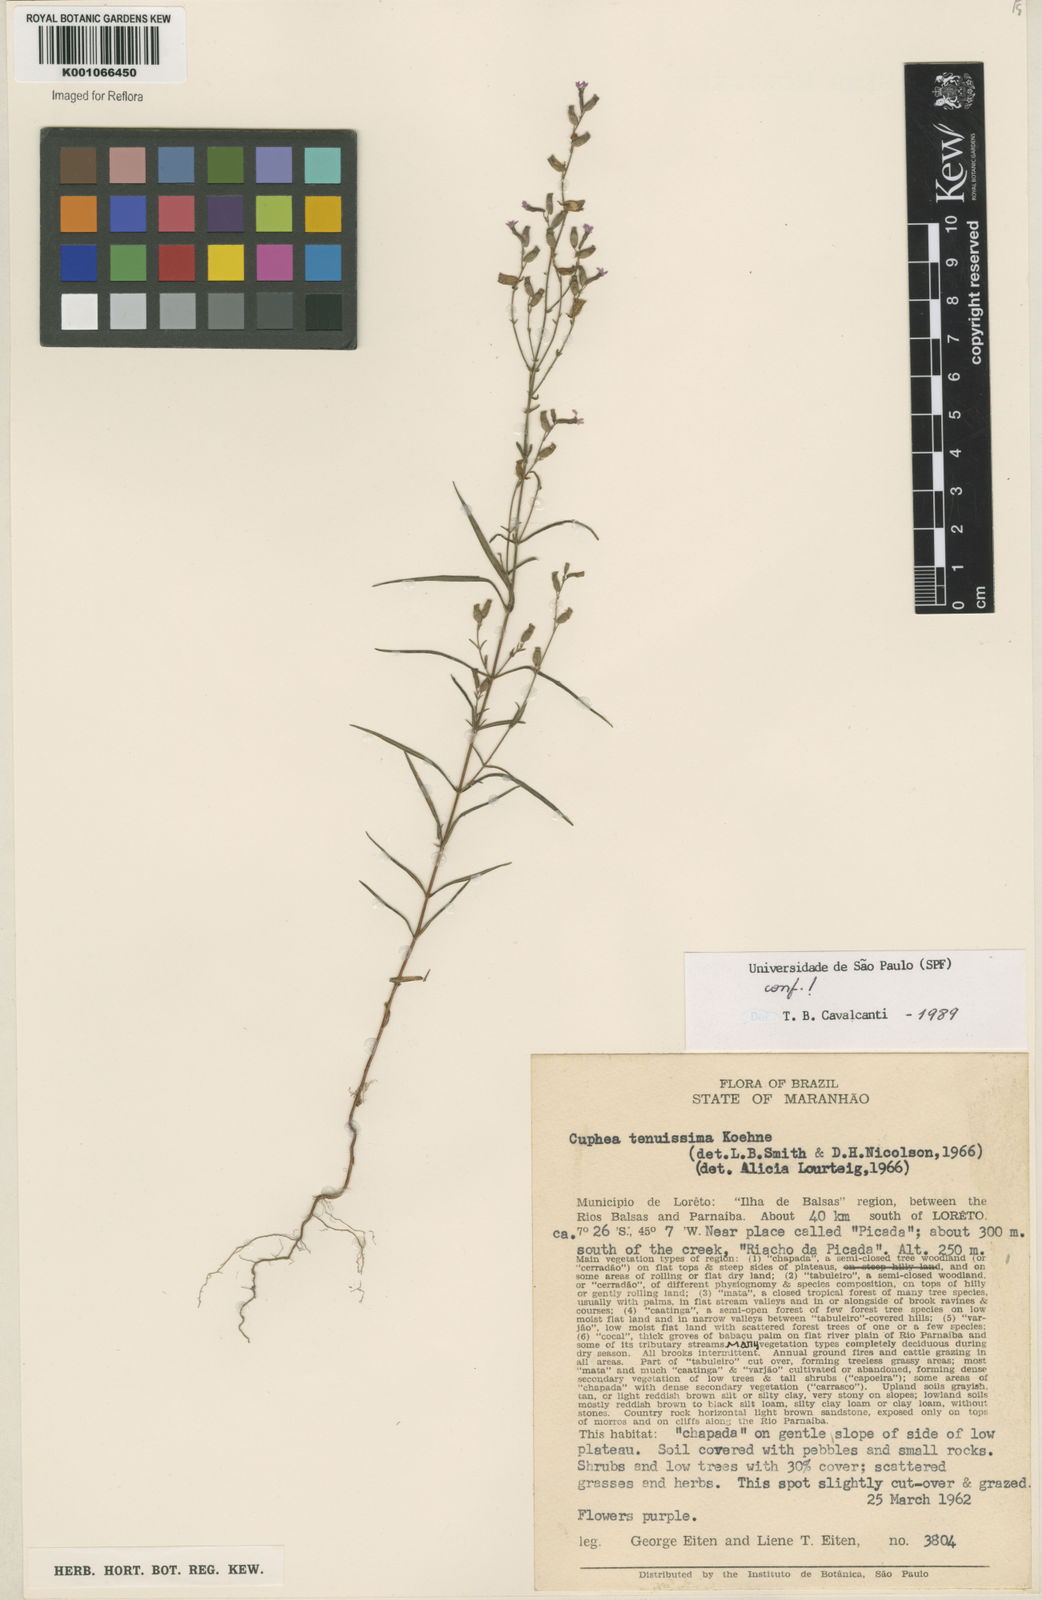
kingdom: Plantae
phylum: Tracheophyta
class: Magnoliopsida
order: Myrtales
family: Lythraceae
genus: Cuphea
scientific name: Cuphea tenuissima
